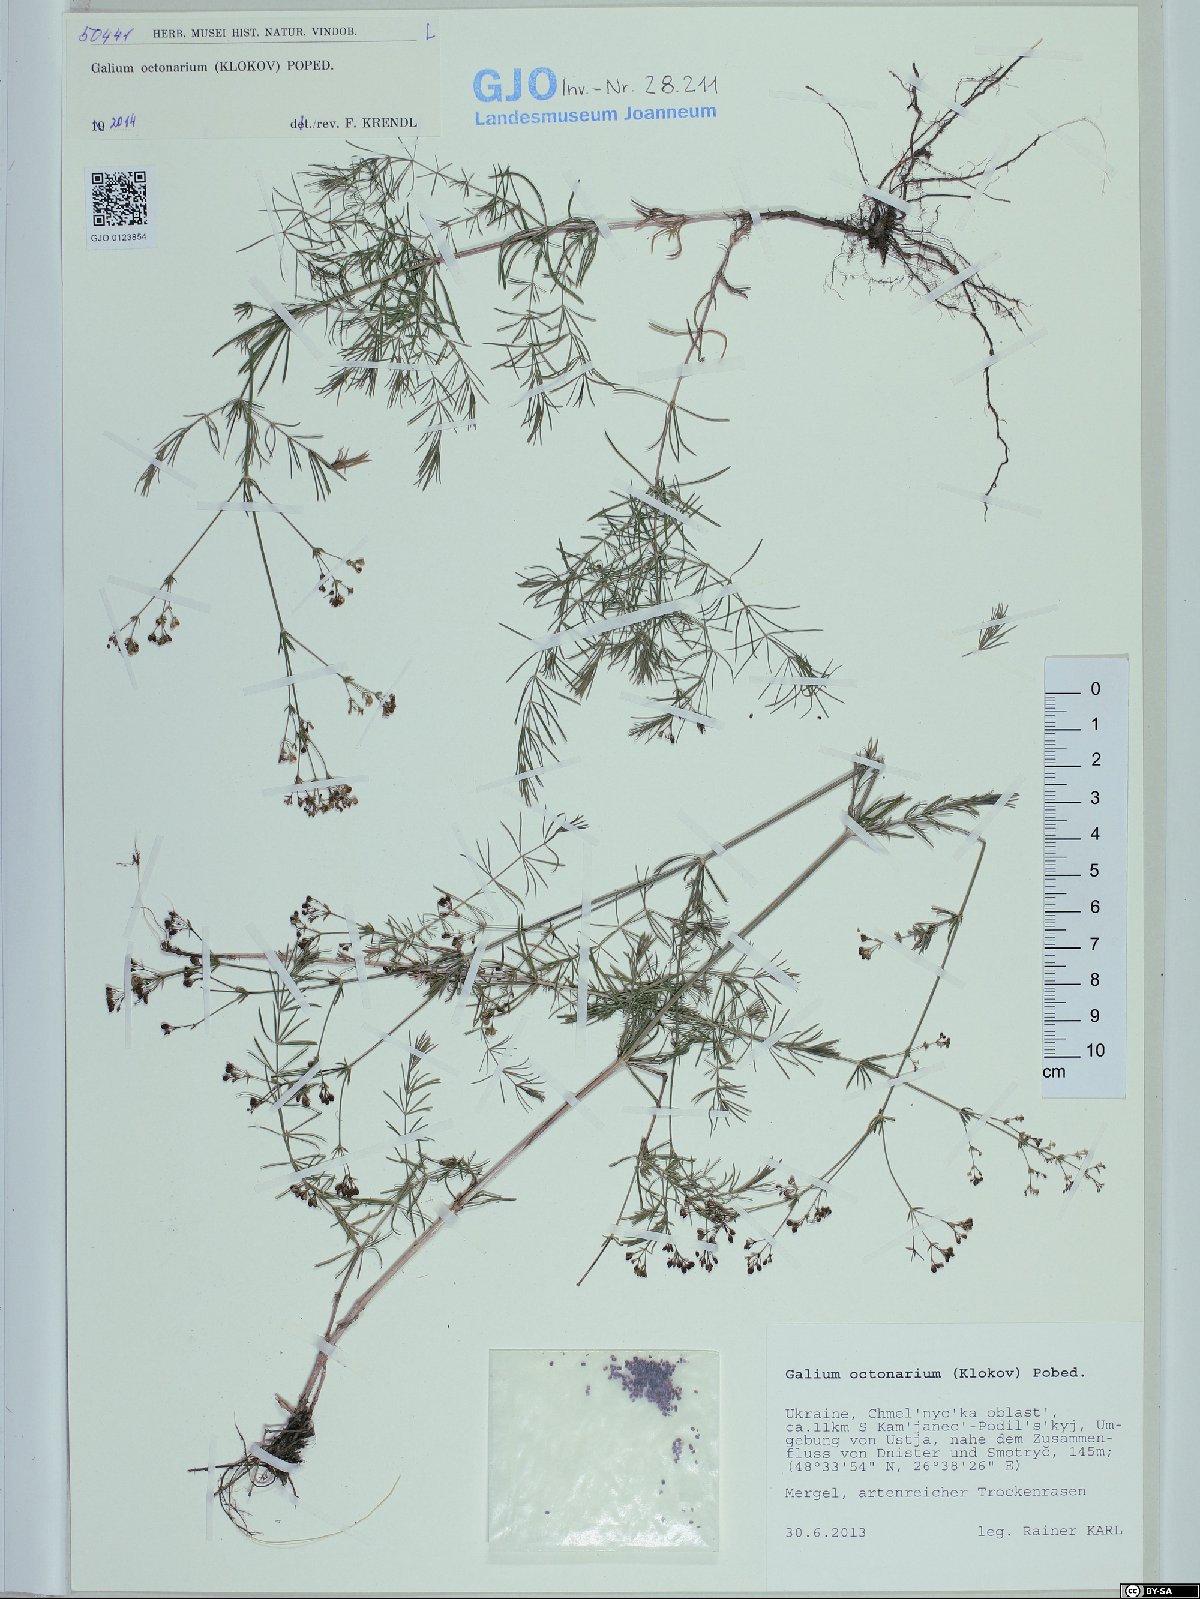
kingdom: Plantae
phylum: Tracheophyta
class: Magnoliopsida
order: Gentianales
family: Rubiaceae
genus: Galium
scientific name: Galium octonarium
